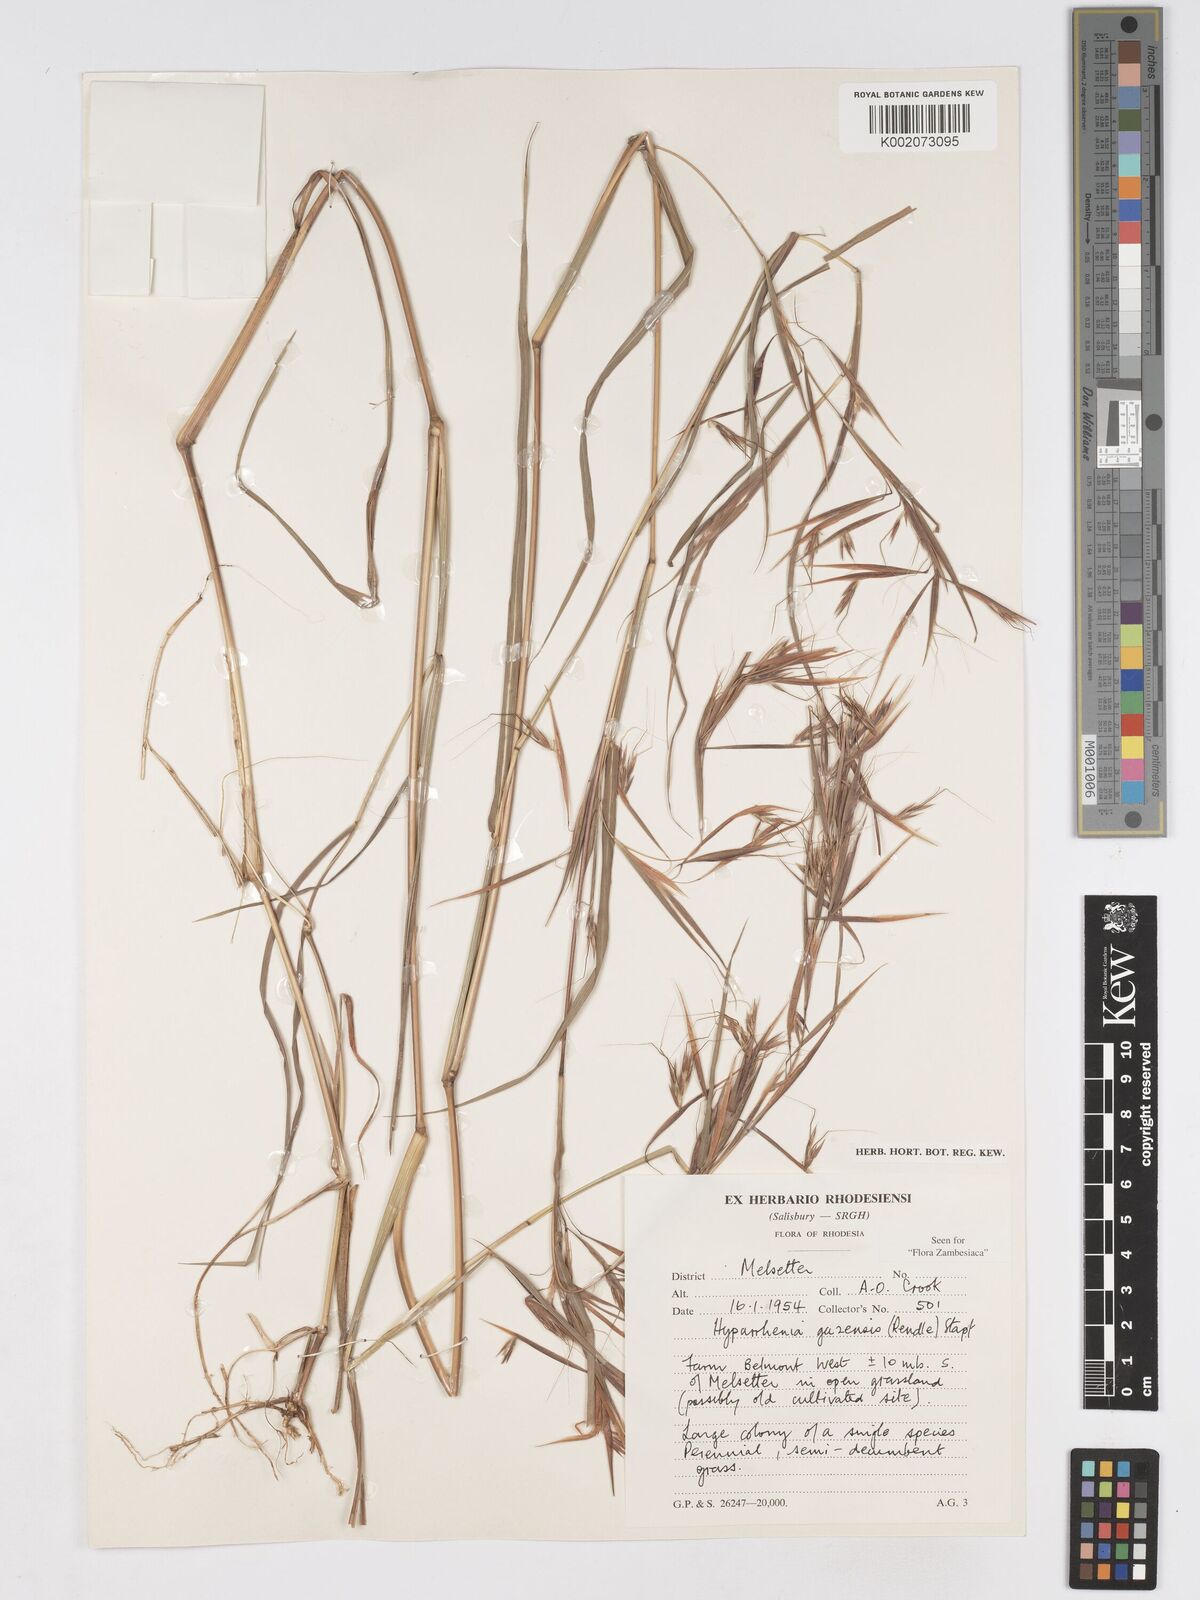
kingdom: Plantae
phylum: Tracheophyta
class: Liliopsida
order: Poales
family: Poaceae
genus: Hyparrhenia
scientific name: Hyparrhenia gazensis
